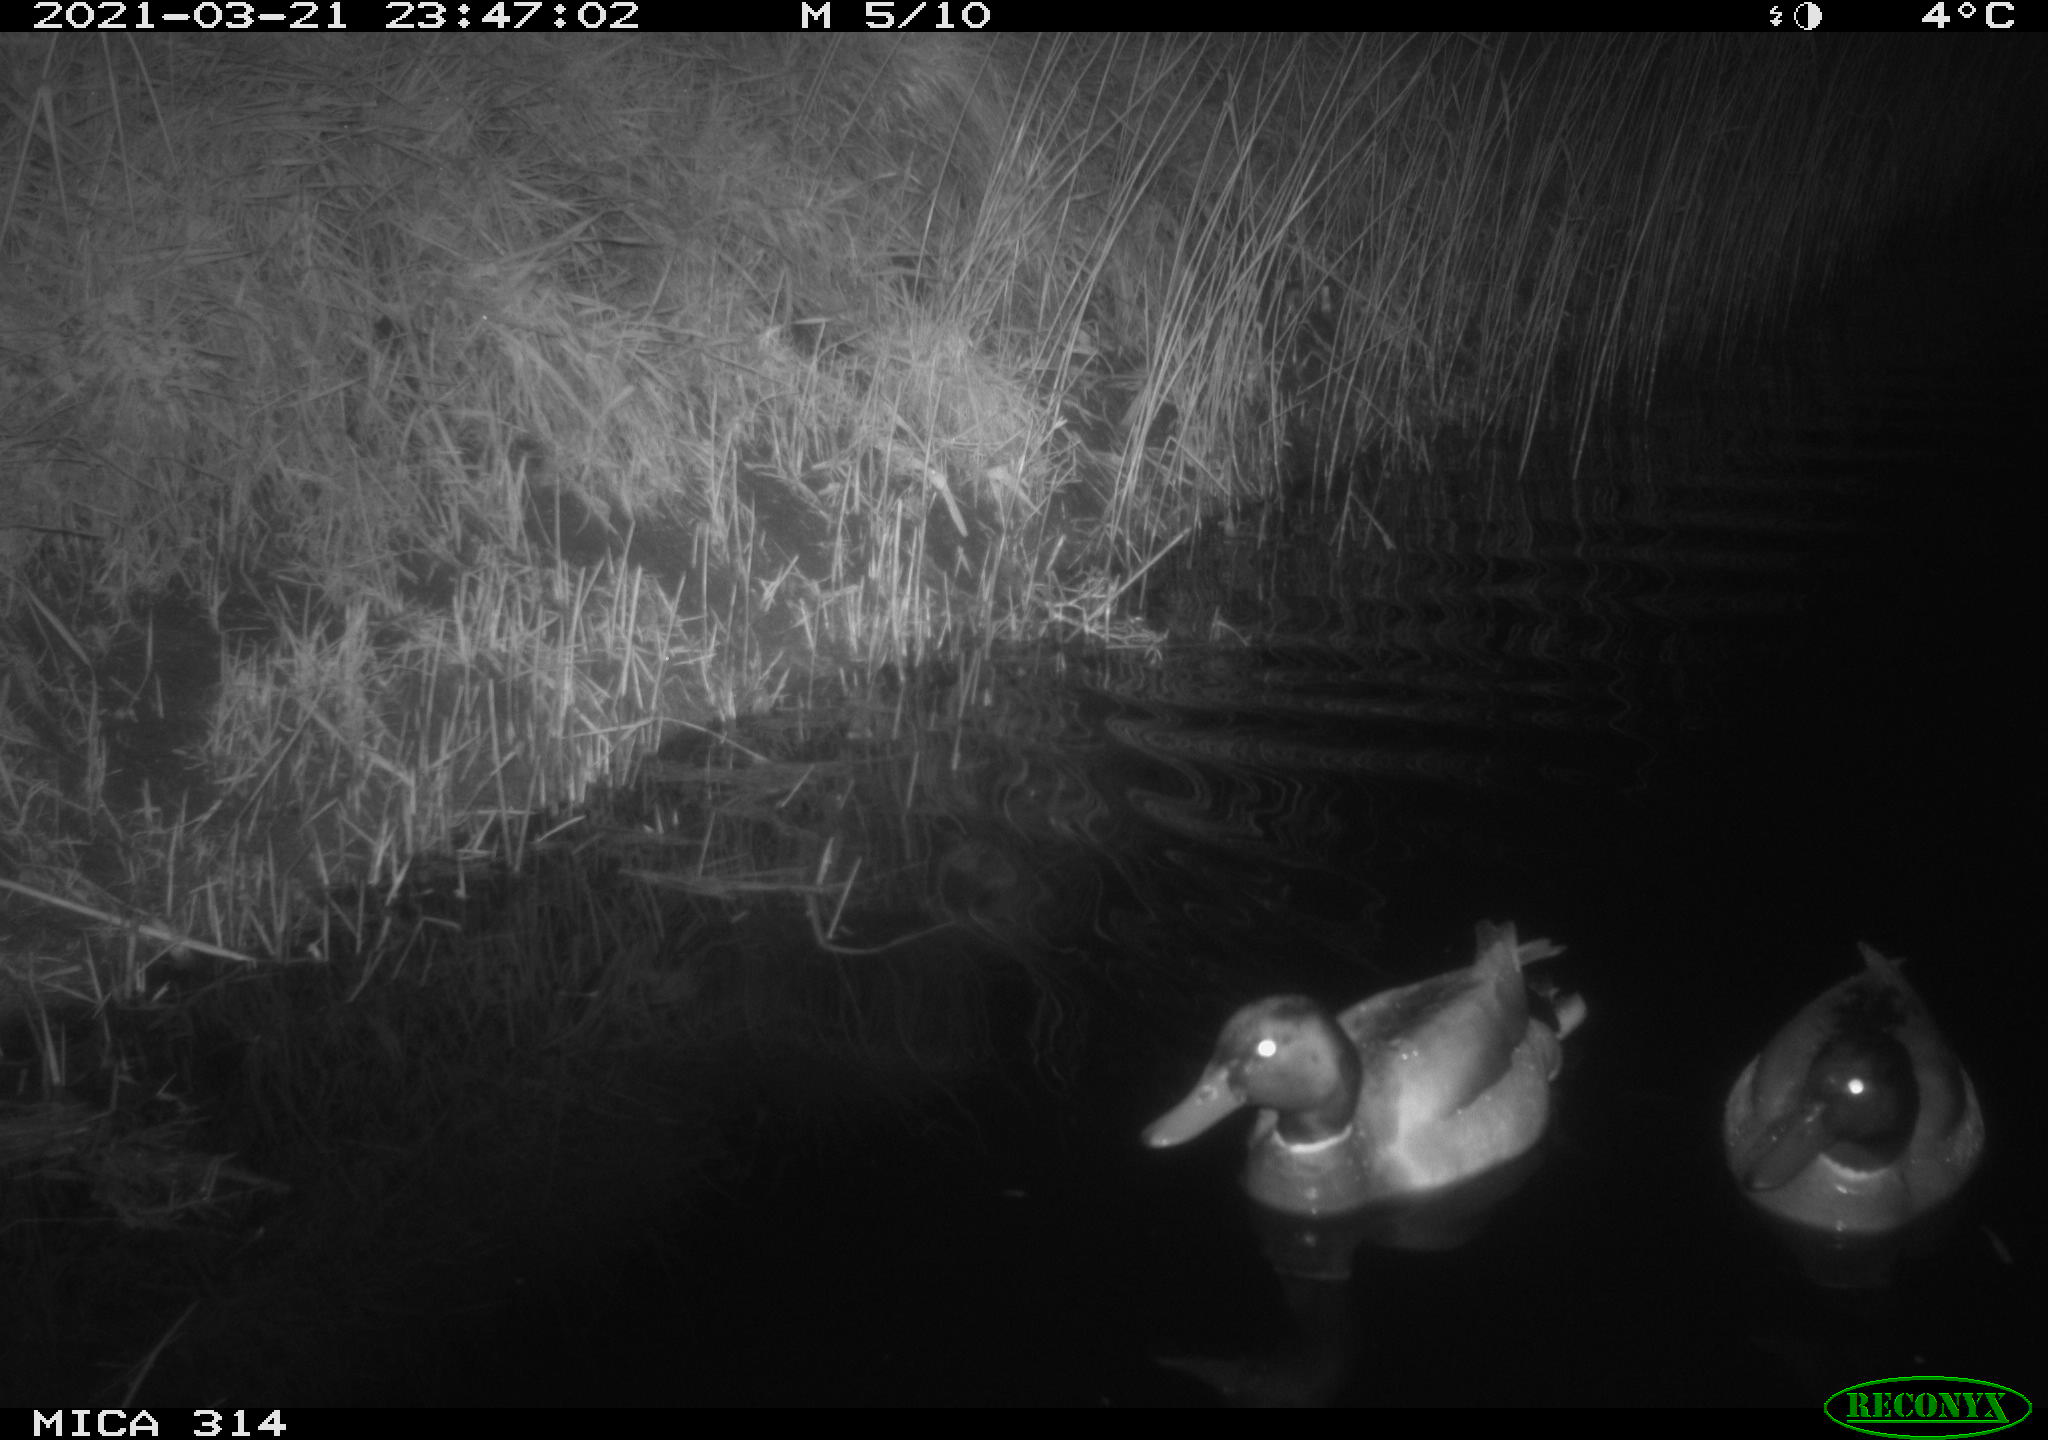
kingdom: Animalia
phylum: Chordata
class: Aves
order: Anseriformes
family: Anatidae
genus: Anas
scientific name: Anas platyrhynchos
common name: Mallard
